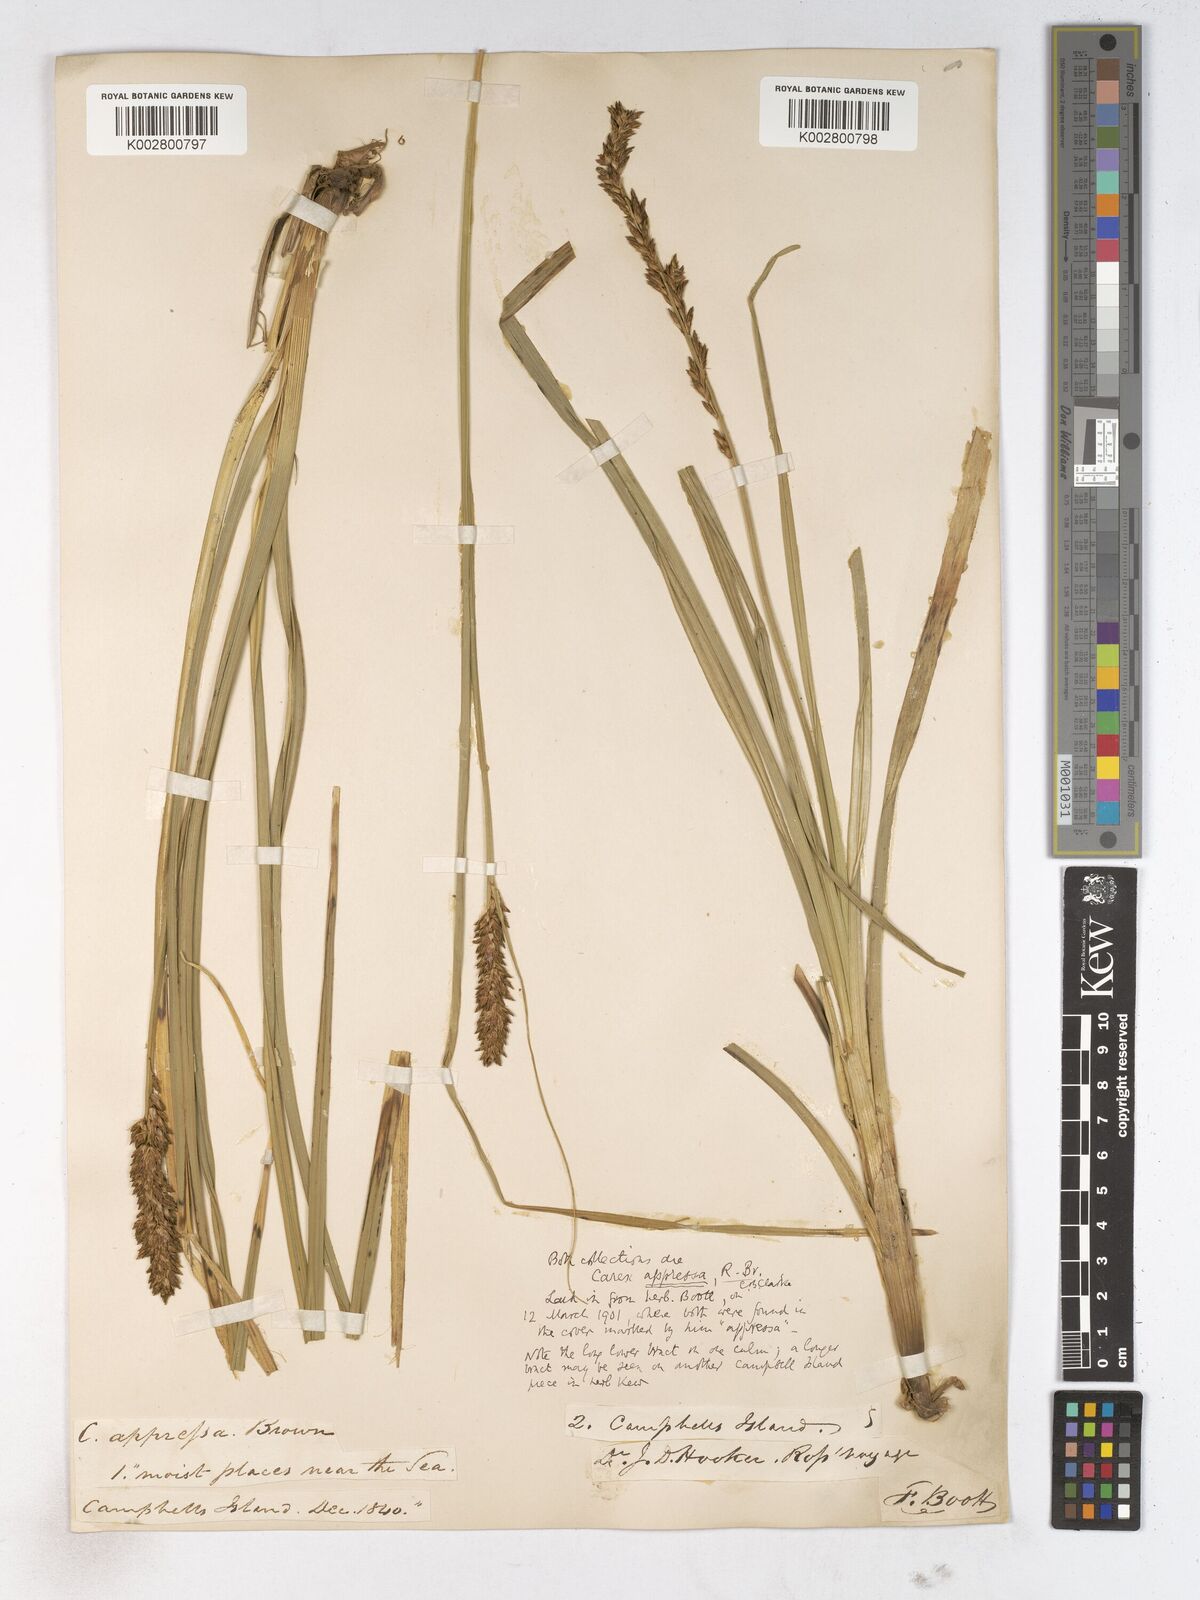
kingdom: Plantae
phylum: Tracheophyta
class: Liliopsida
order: Poales
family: Cyperaceae
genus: Carex
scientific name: Carex appressa
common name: Tussock sedge
